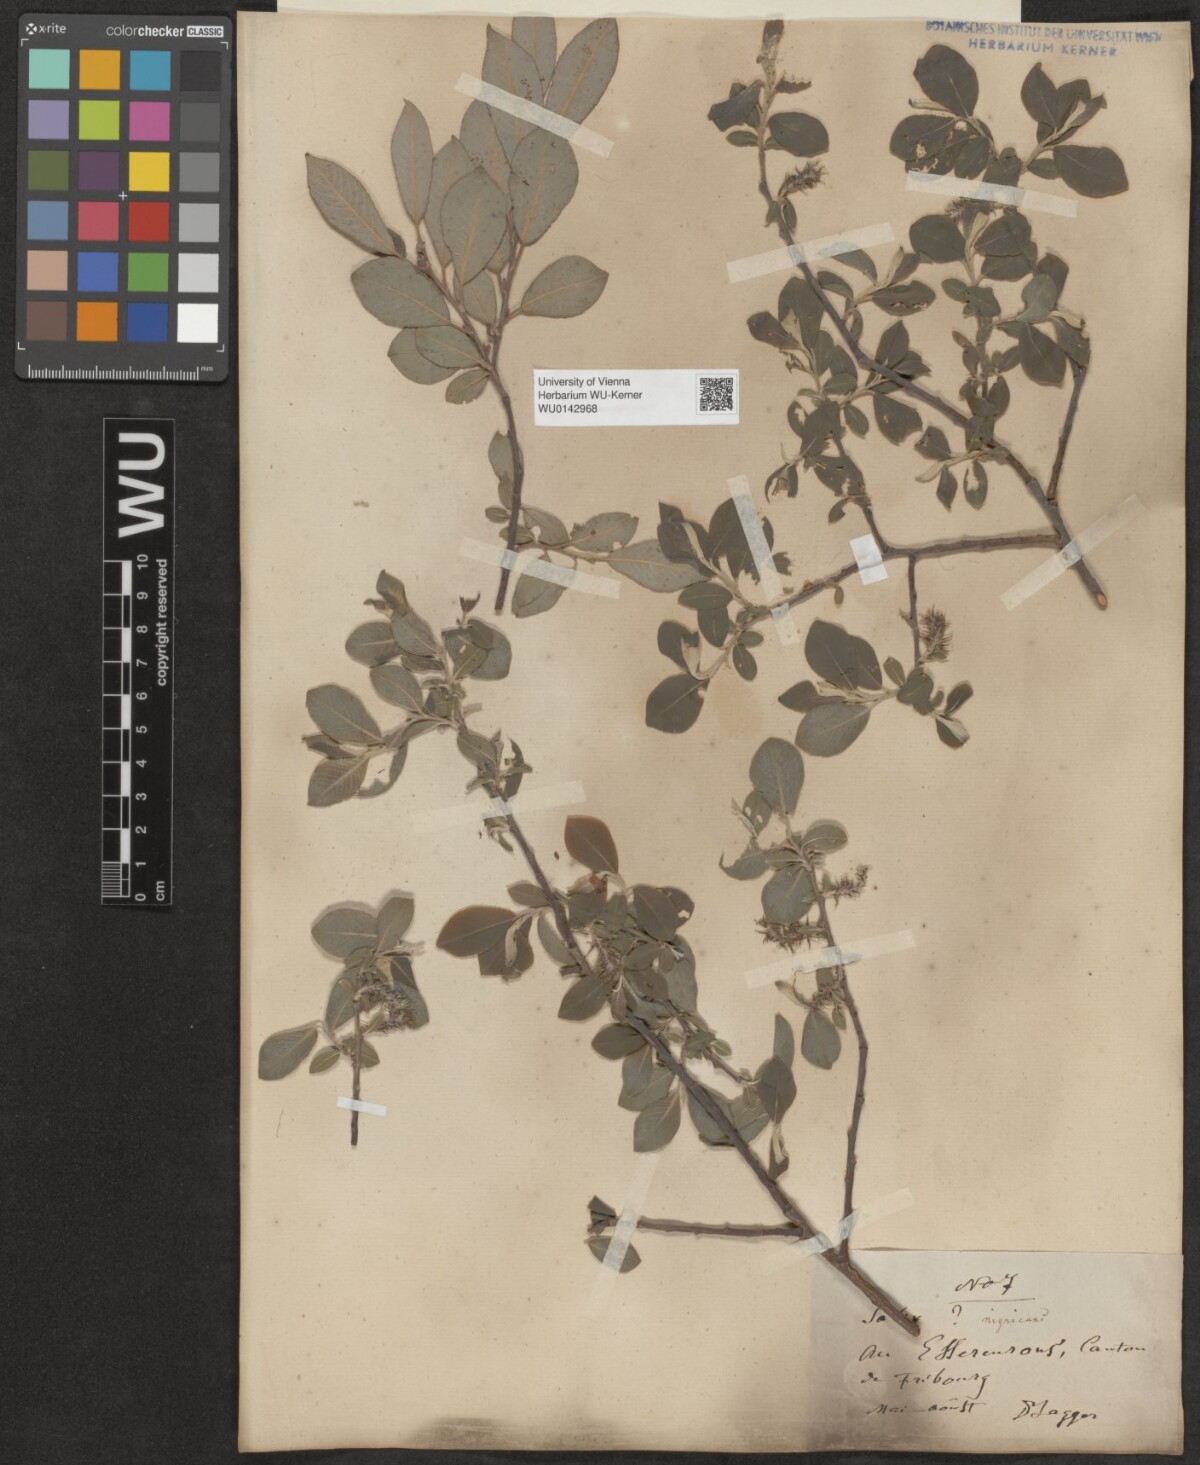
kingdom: Plantae
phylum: Tracheophyta
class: Magnoliopsida
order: Malpighiales
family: Salicaceae
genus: Salix
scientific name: Salix myrsinifolia
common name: Dark-leaved willow
